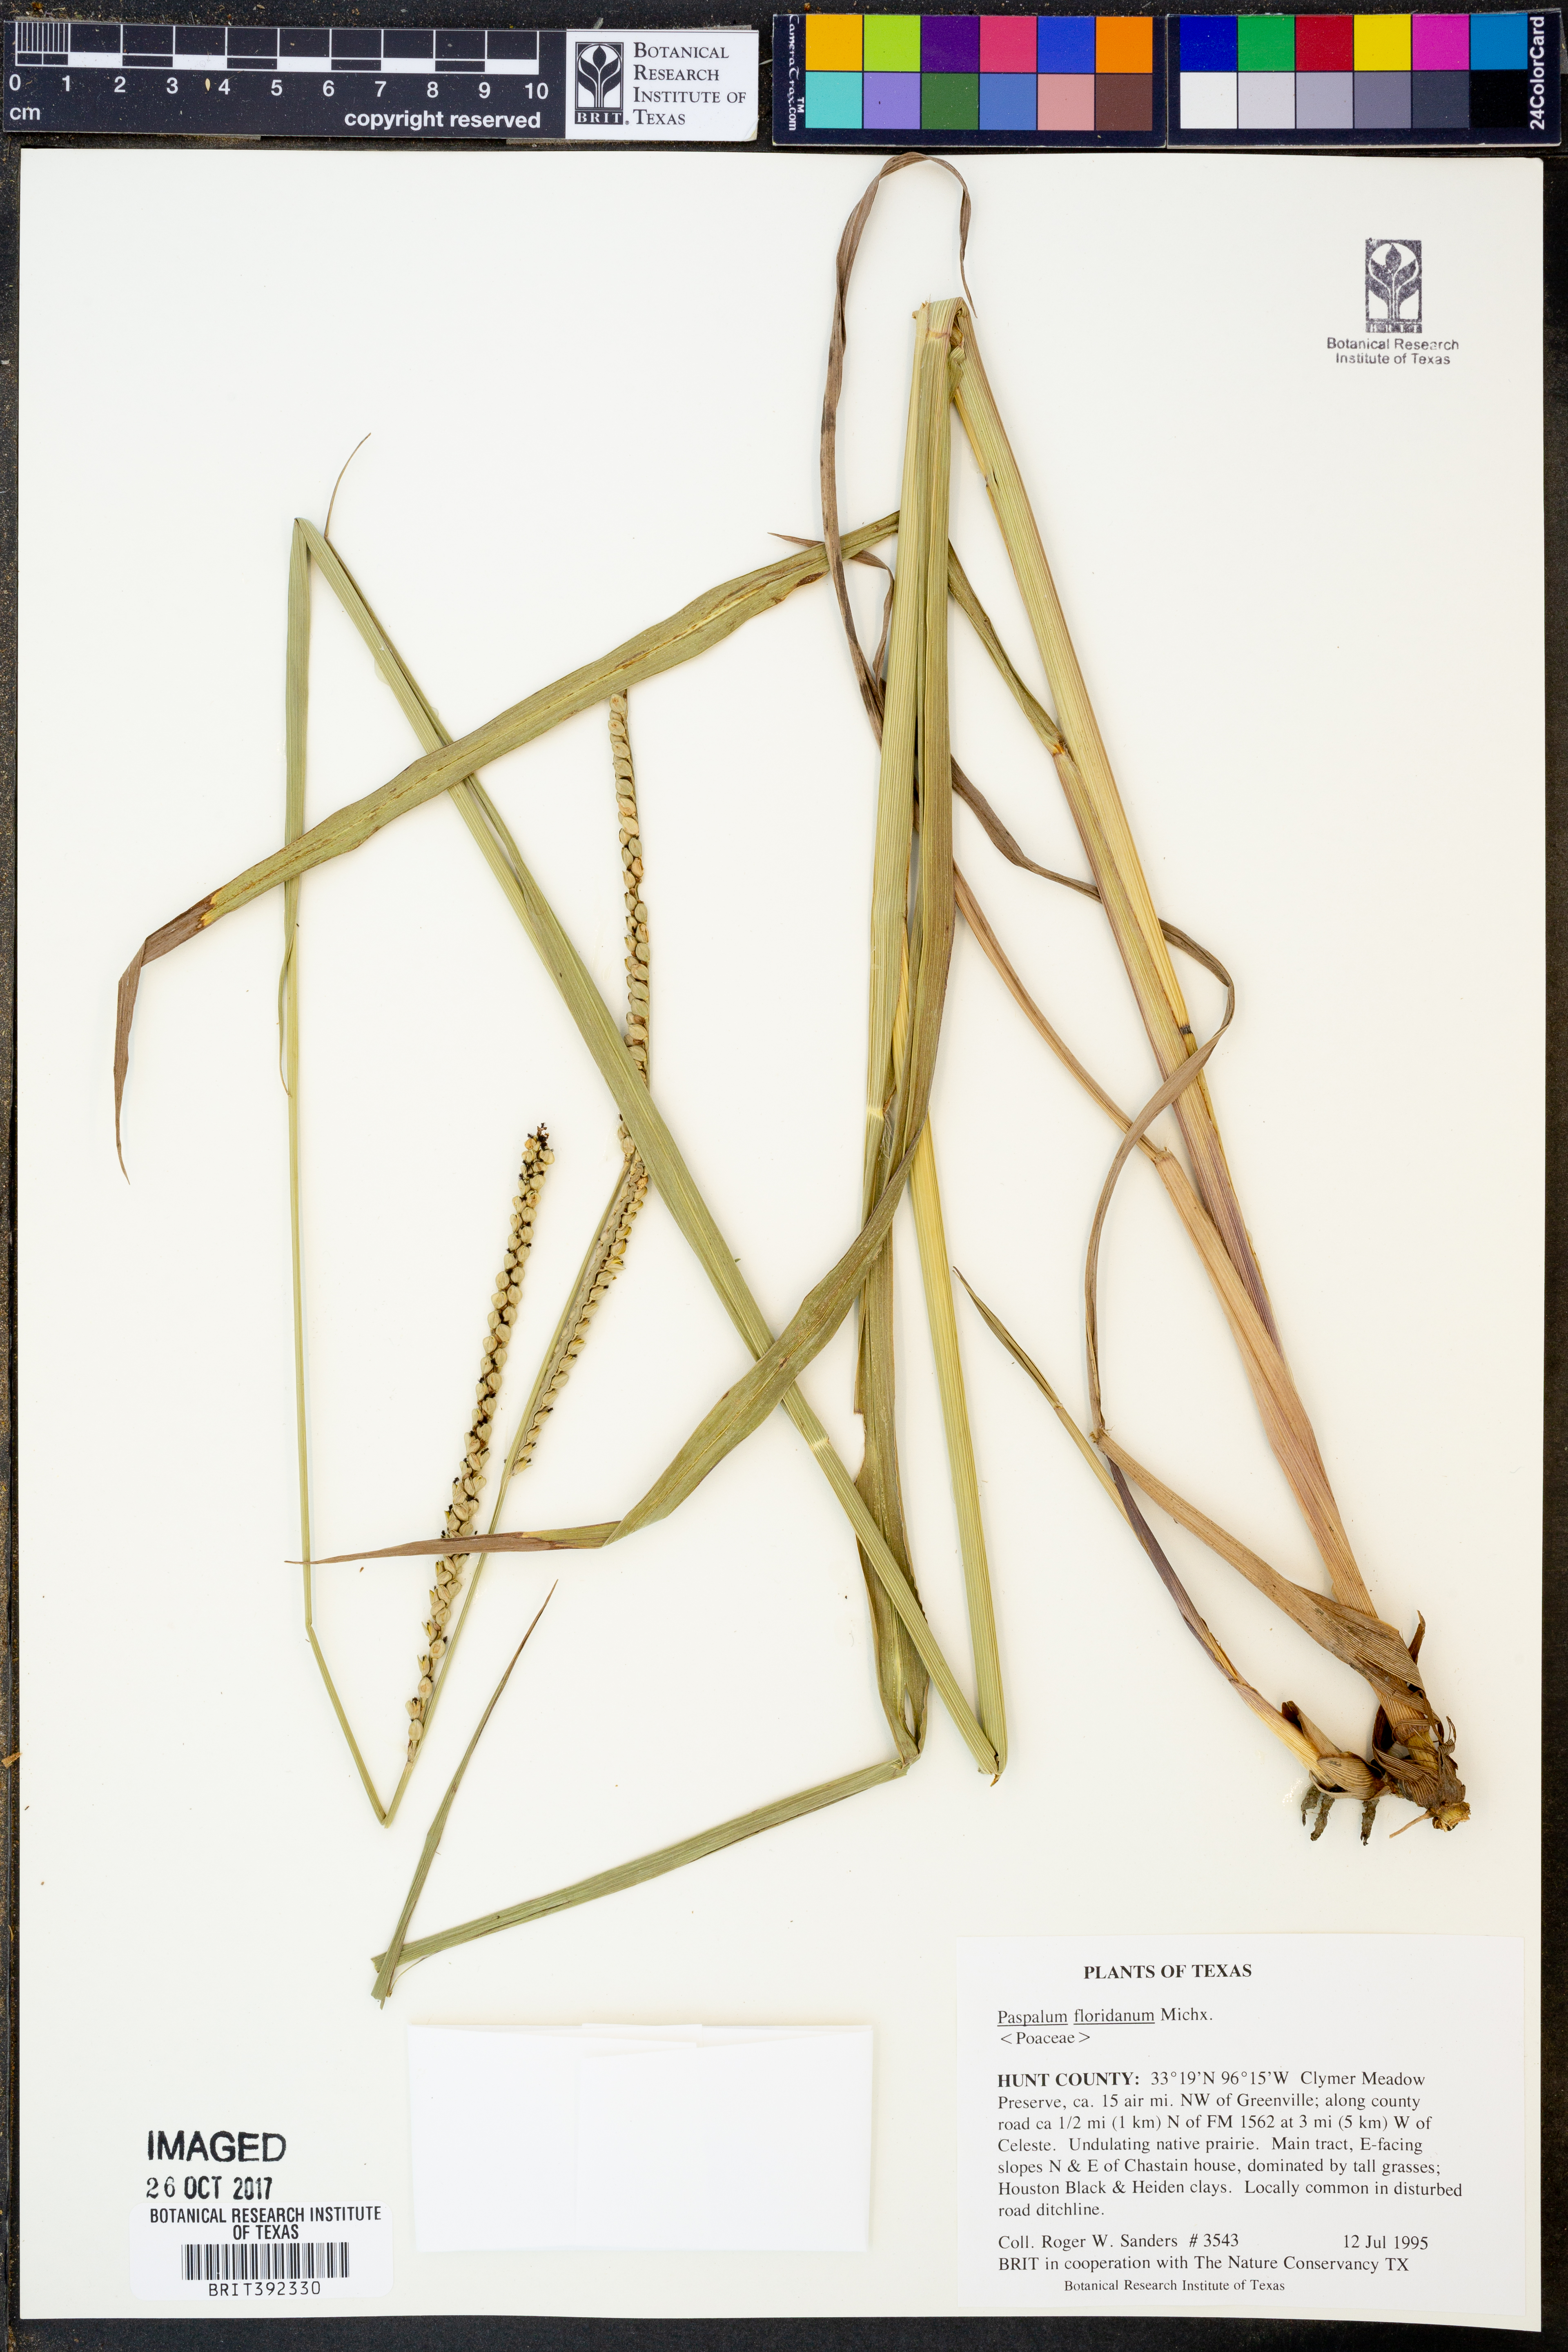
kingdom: Plantae
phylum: Tracheophyta
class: Liliopsida
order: Poales
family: Poaceae
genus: Paspalum
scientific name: Paspalum floridanum
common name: Florida paspalum
